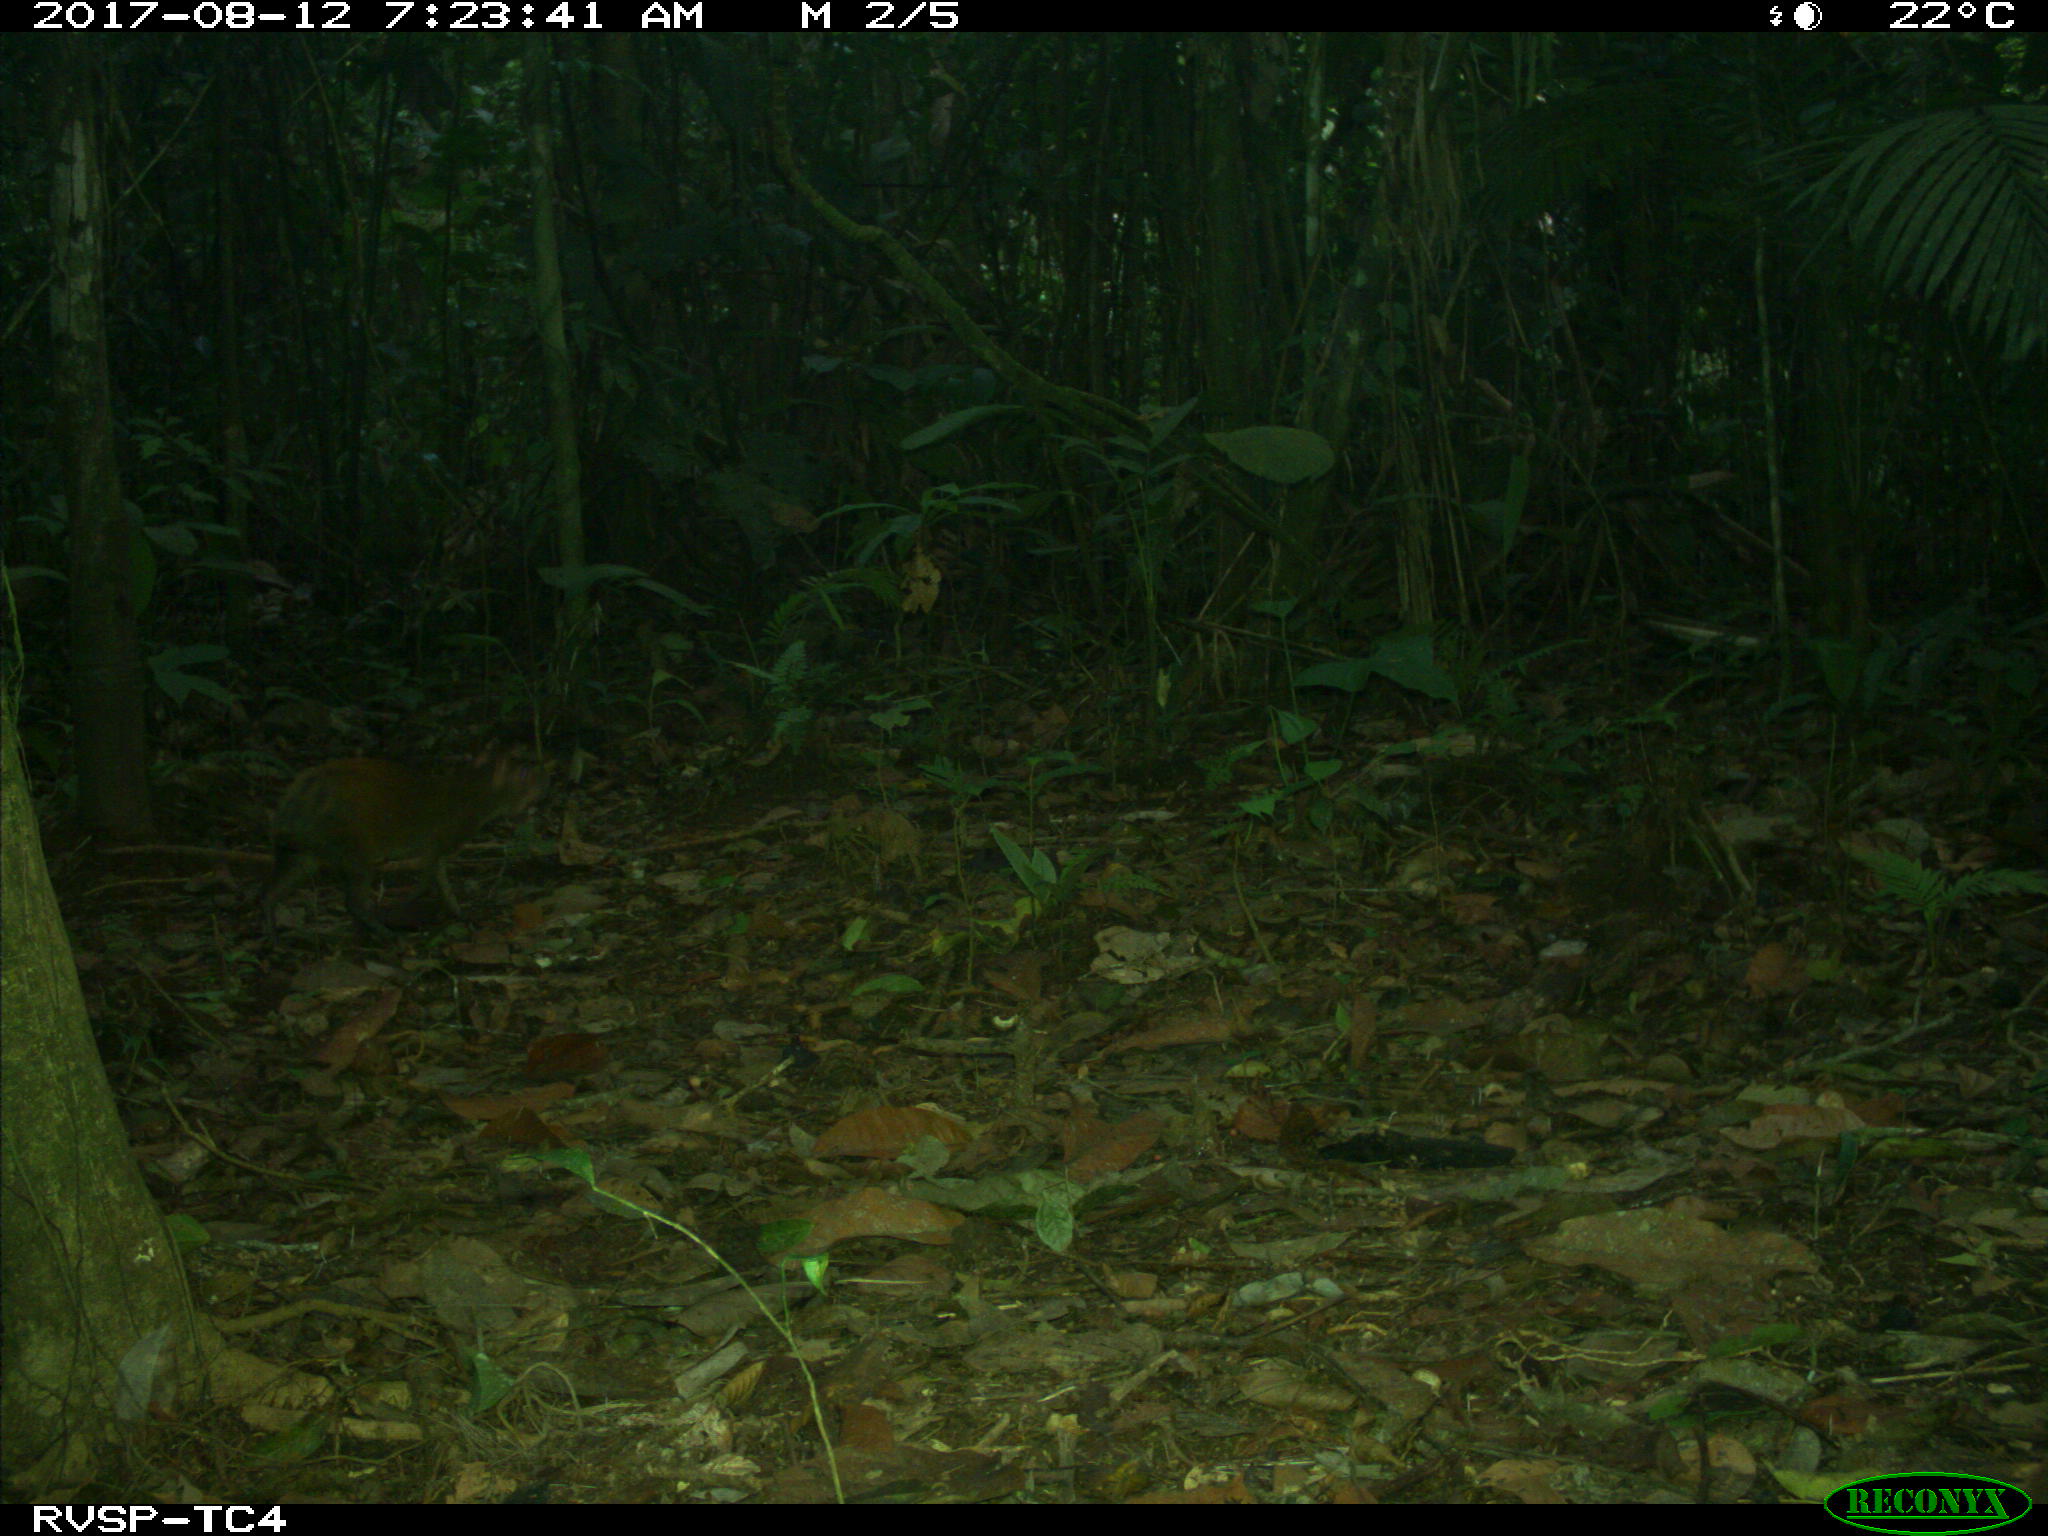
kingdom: Animalia
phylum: Chordata
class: Mammalia
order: Rodentia
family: Dasyproctidae
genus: Dasyprocta
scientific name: Dasyprocta punctata
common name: Central american agouti
